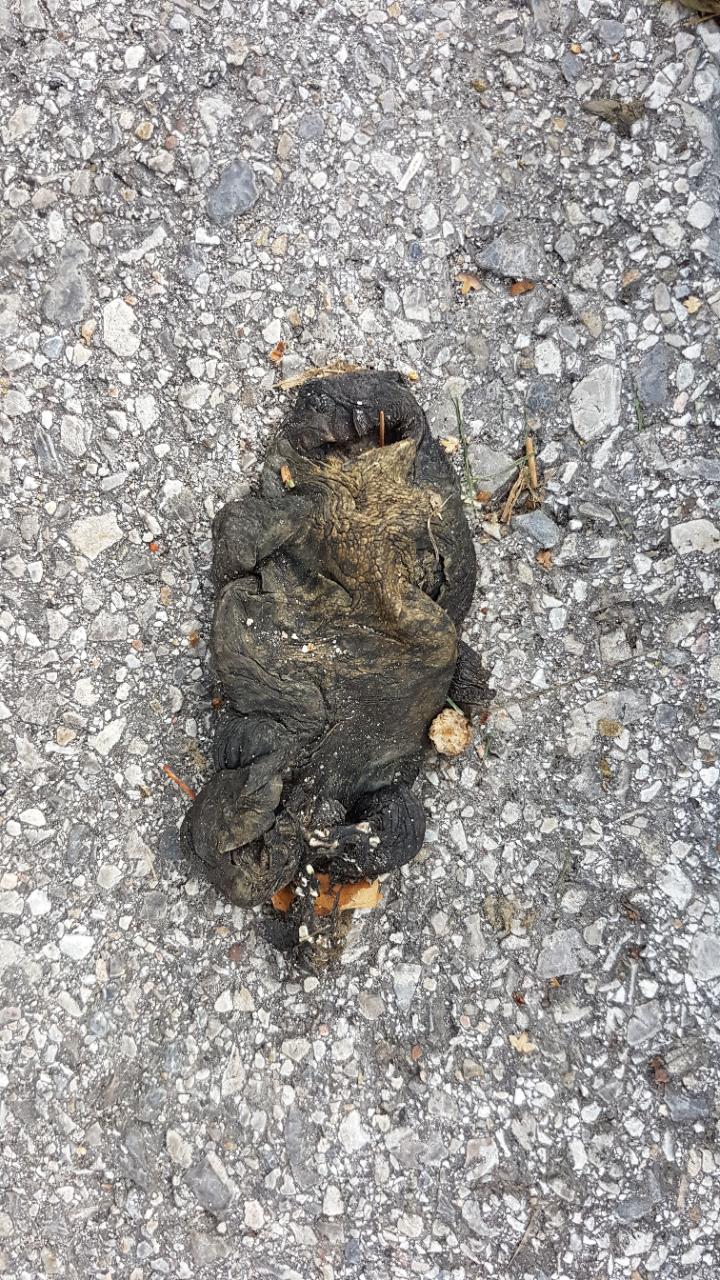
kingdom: Animalia
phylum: Chordata
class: Amphibia
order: Anura
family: Bufonidae
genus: Bufo
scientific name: Bufo bufo
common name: Common toad
